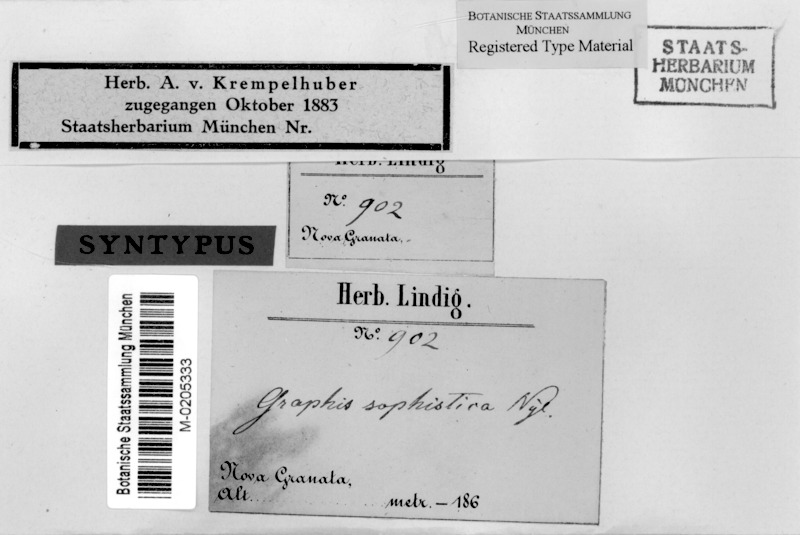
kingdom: Fungi
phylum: Ascomycota
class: Lecanoromycetes
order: Ostropales
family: Graphidaceae
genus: Graphina
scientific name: Graphina sophistica
